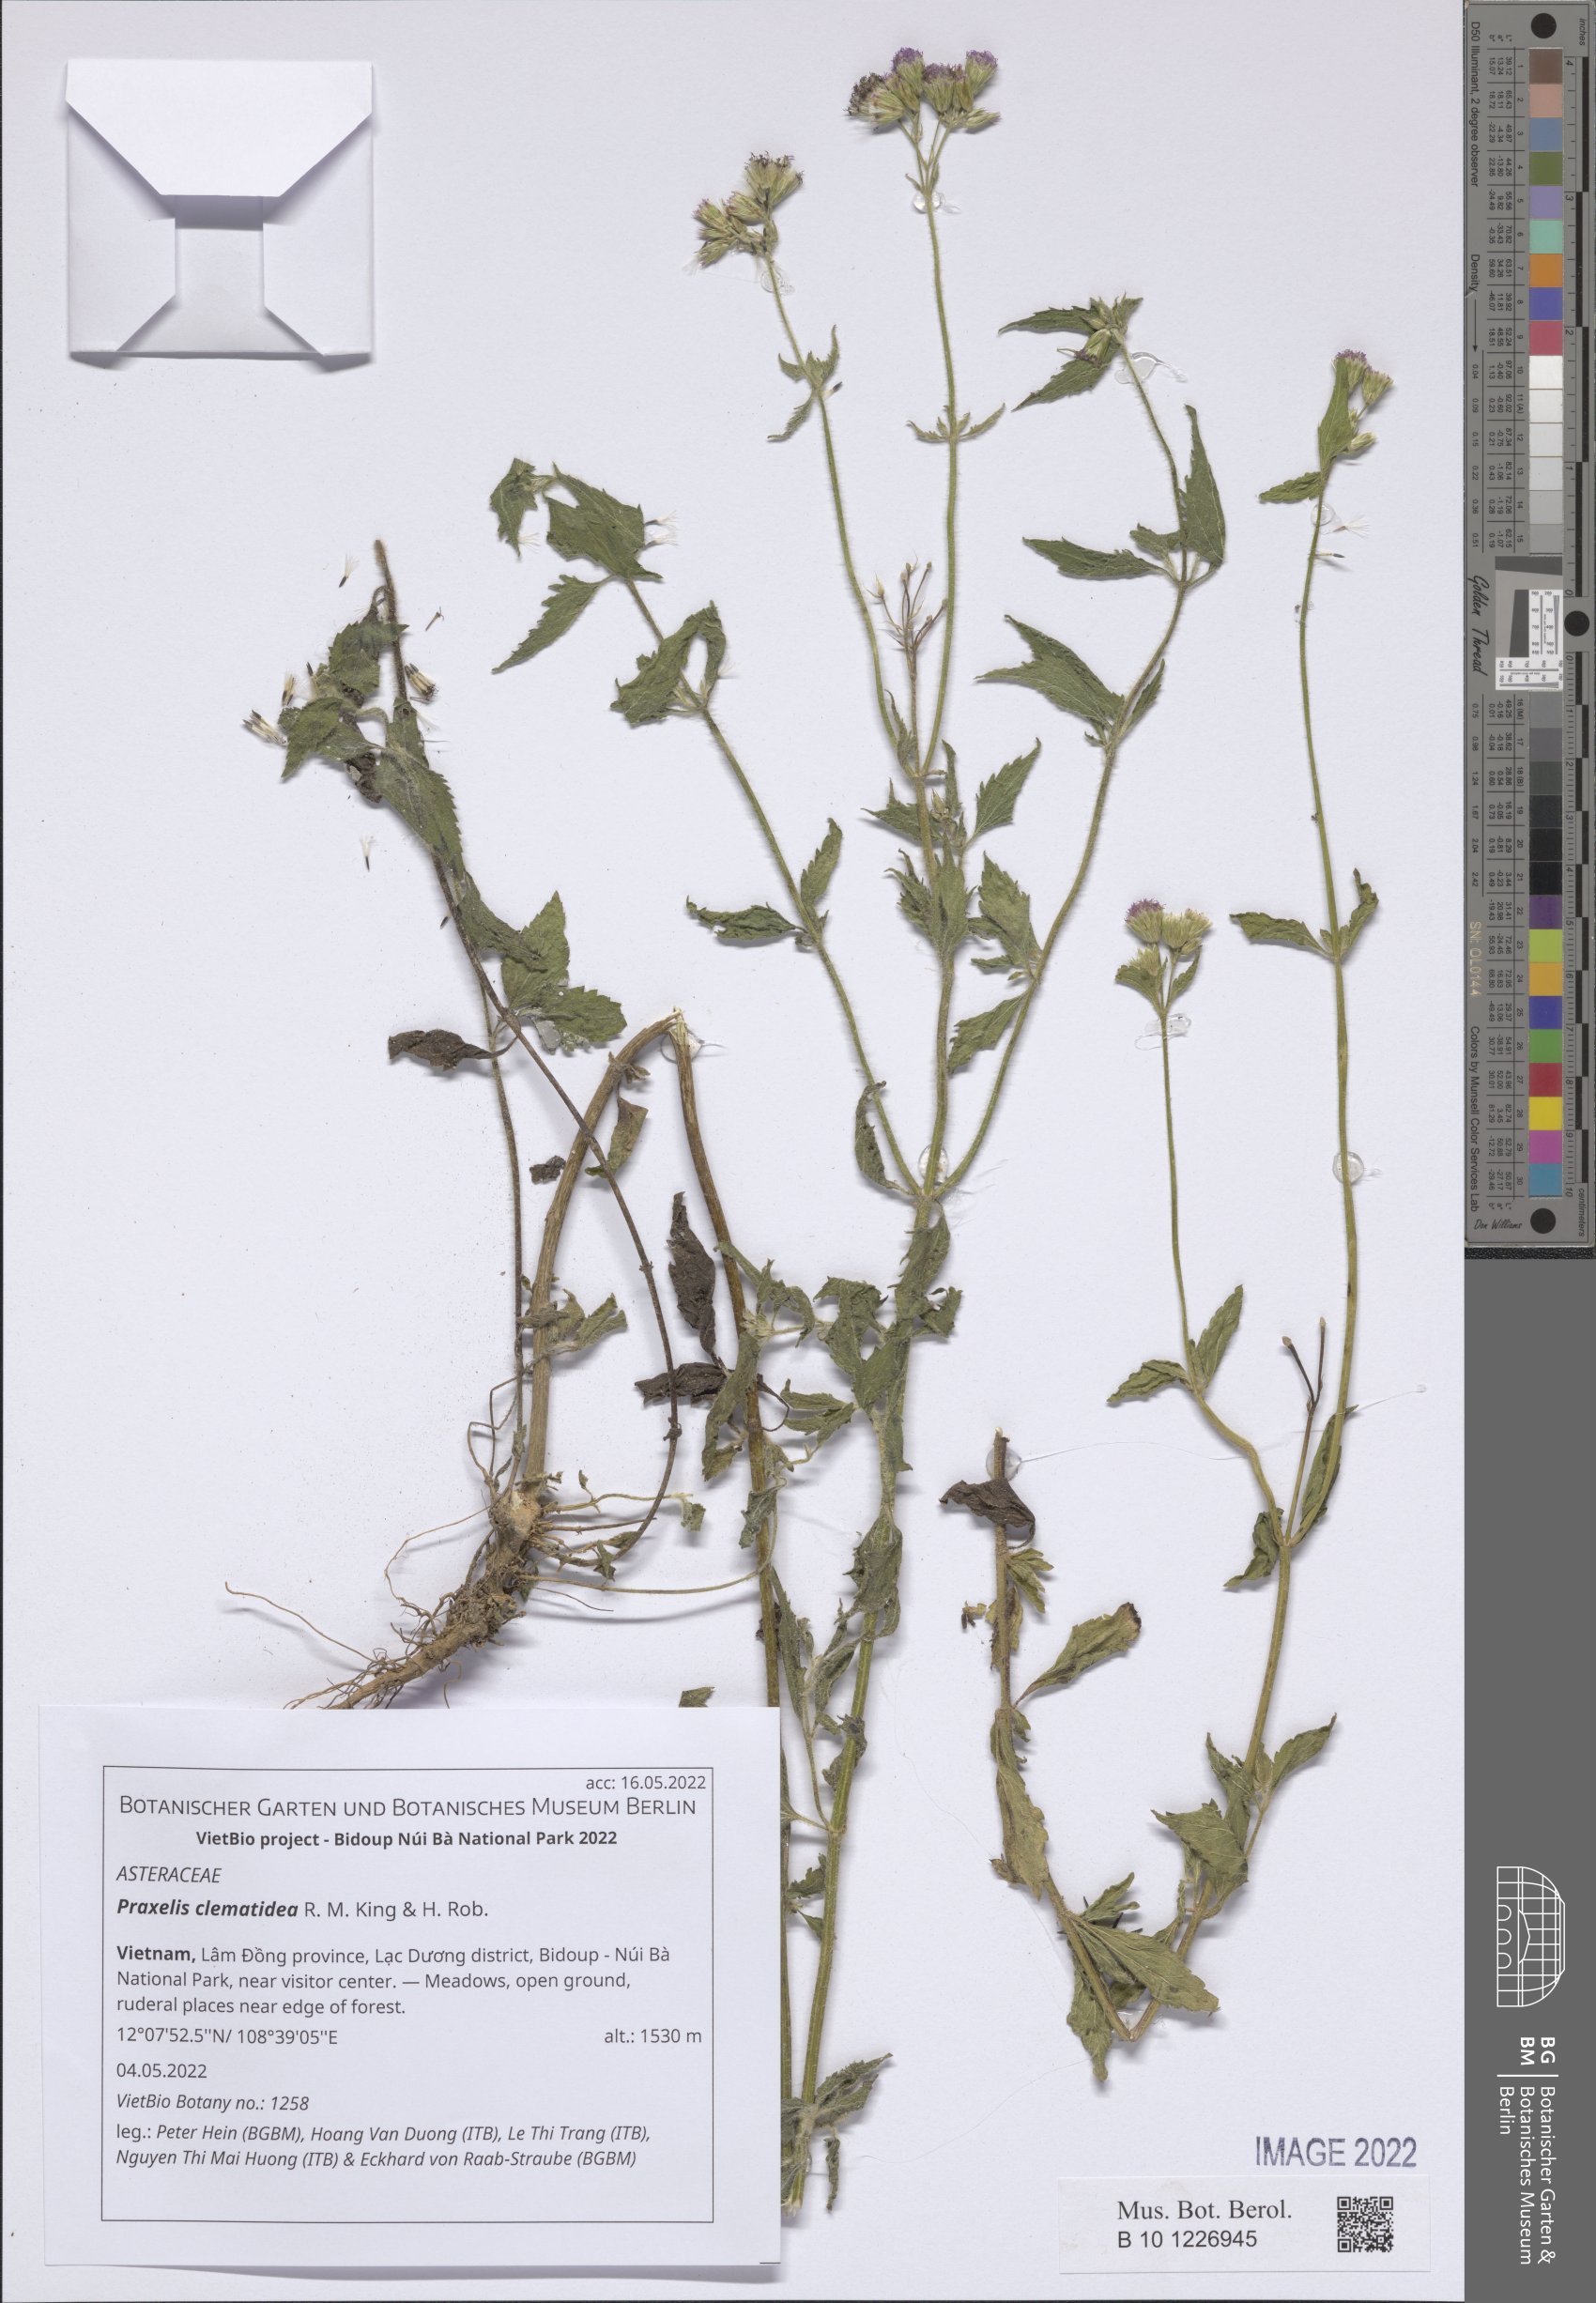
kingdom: Plantae
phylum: Tracheophyta
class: Magnoliopsida
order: Asterales
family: Asteraceae
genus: Praxelis
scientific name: Praxelis clematidea
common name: Praxelis
